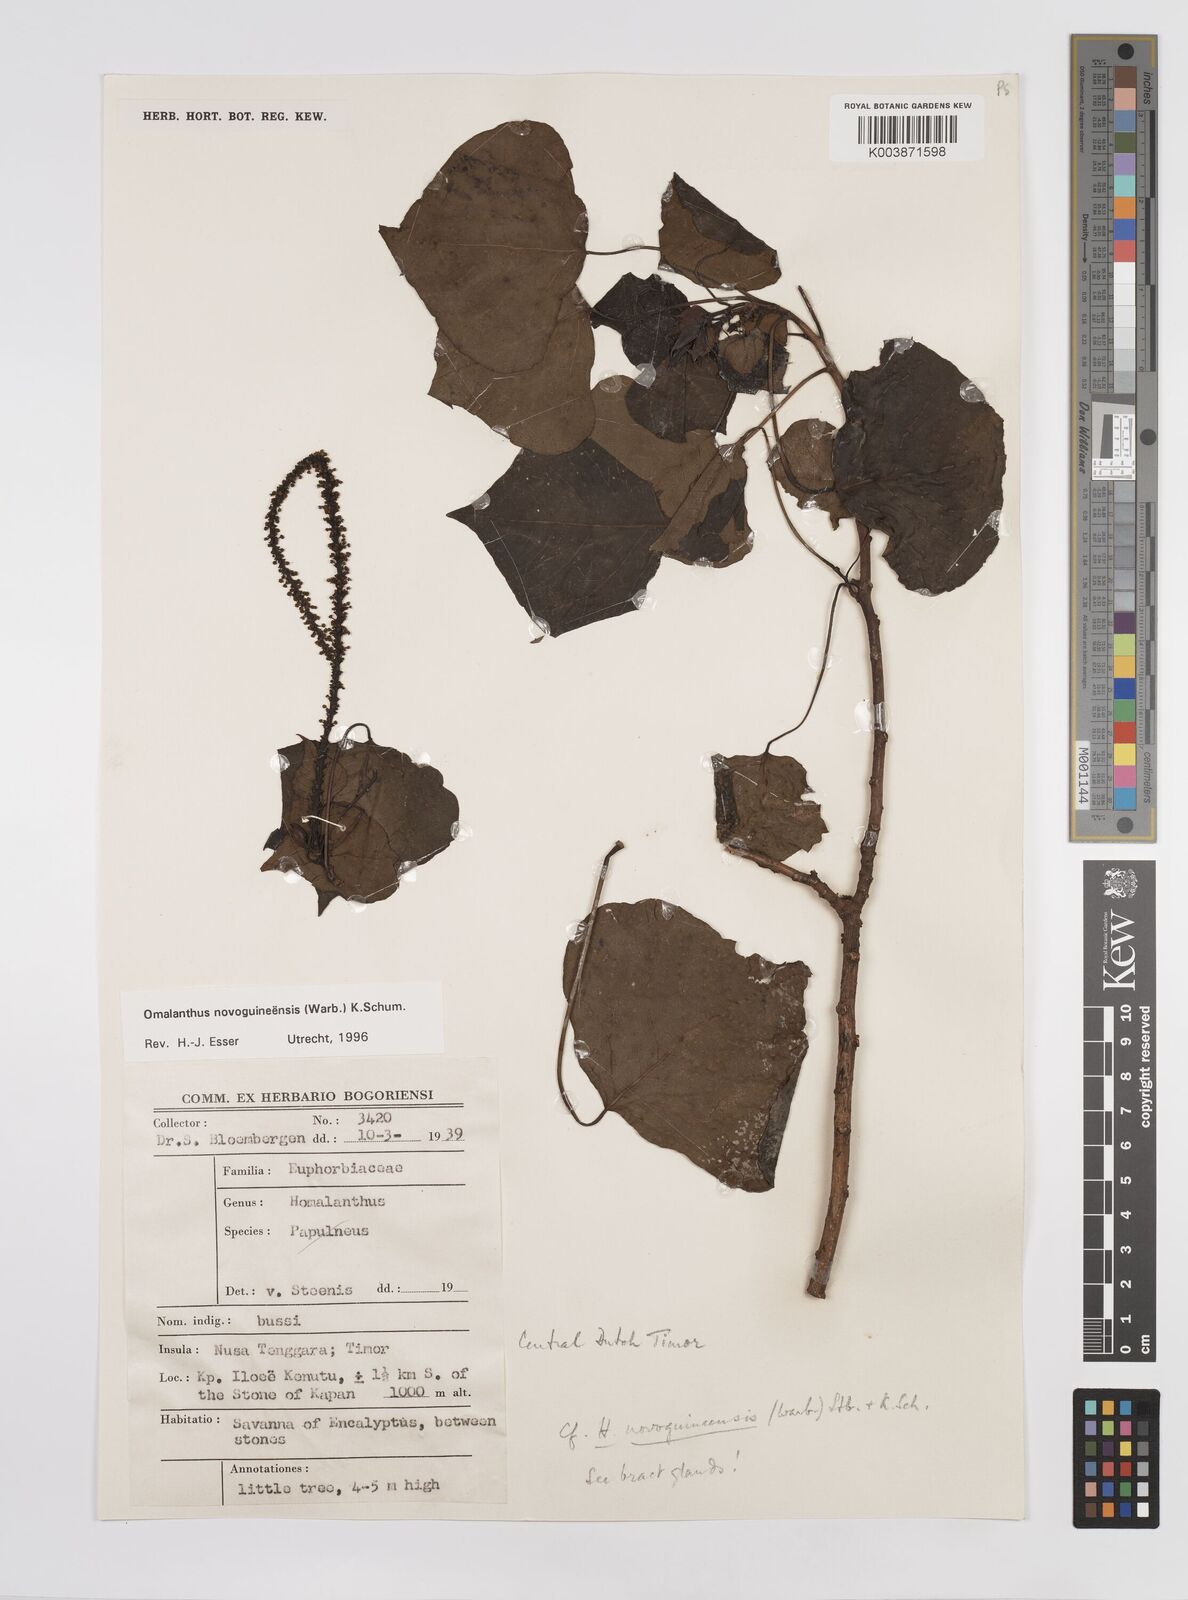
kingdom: Plantae
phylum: Tracheophyta
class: Magnoliopsida
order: Malpighiales
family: Euphorbiaceae
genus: Homalanthus
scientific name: Homalanthus novoguineensis
